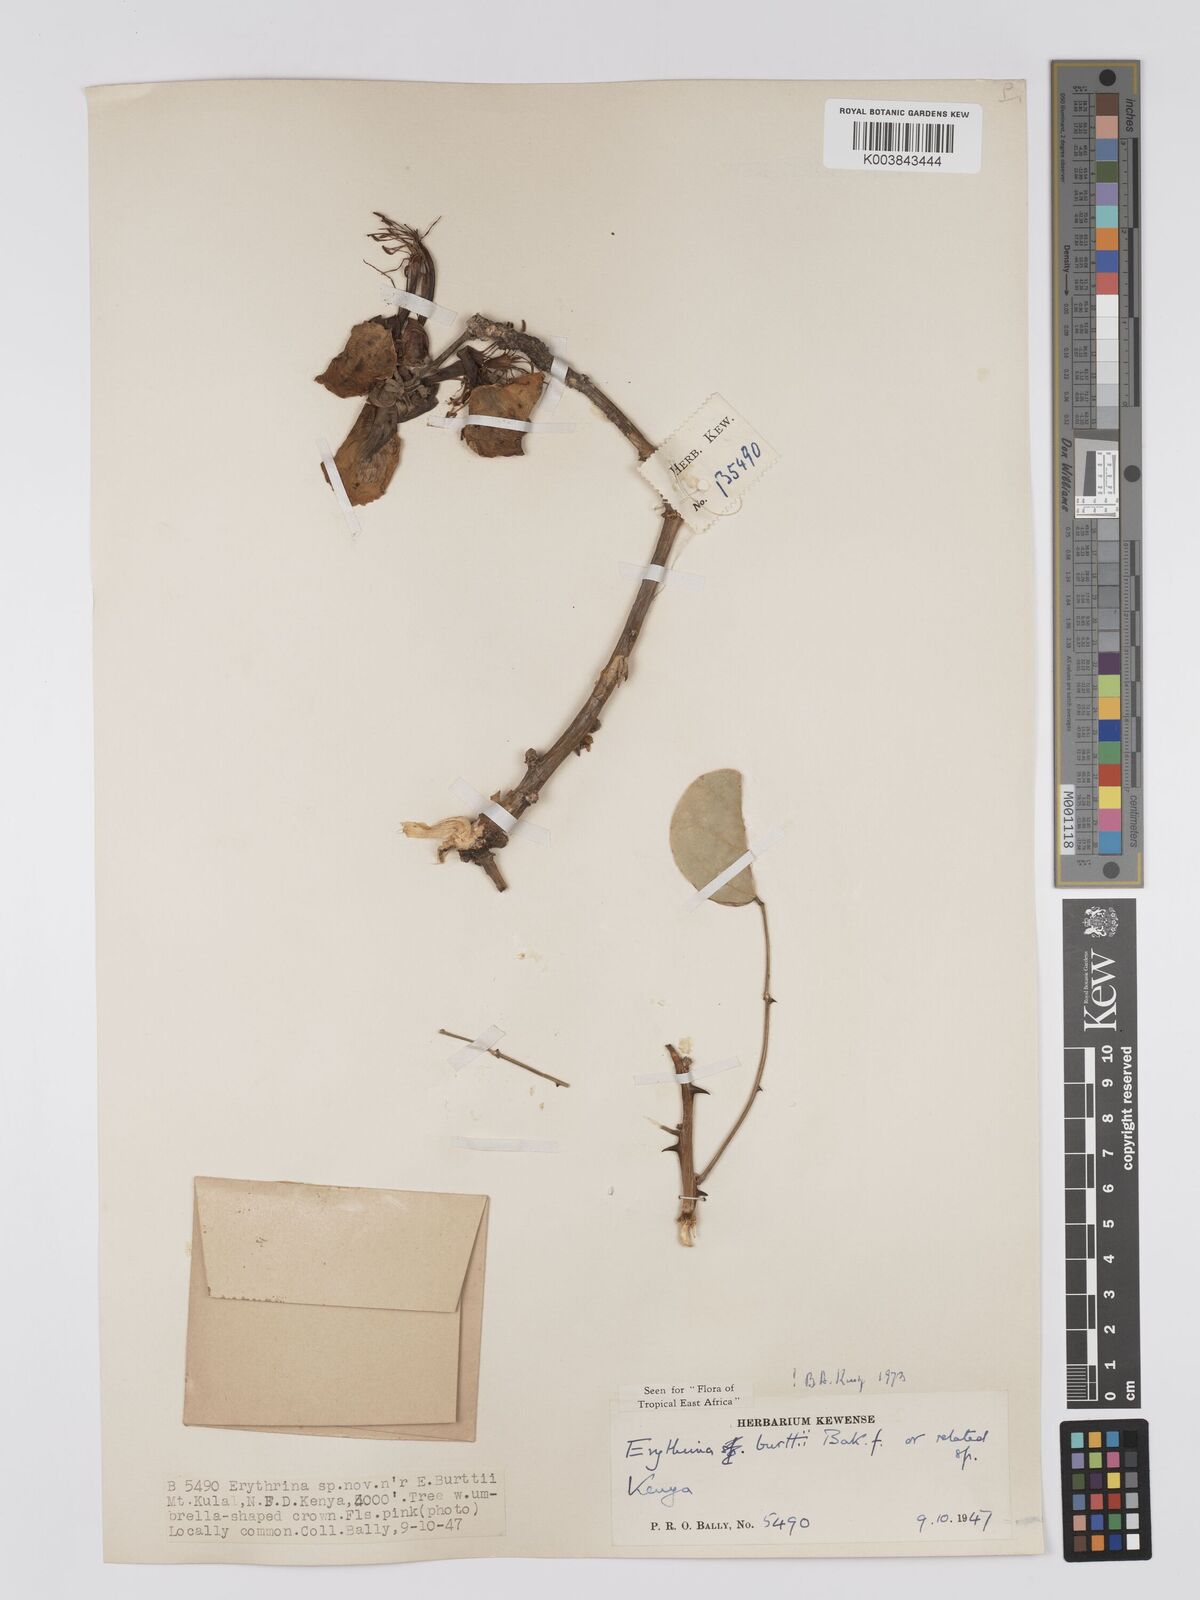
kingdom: Plantae
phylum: Tracheophyta
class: Magnoliopsida
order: Fabales
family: Fabaceae
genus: Erythrina
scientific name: Erythrina burttii
